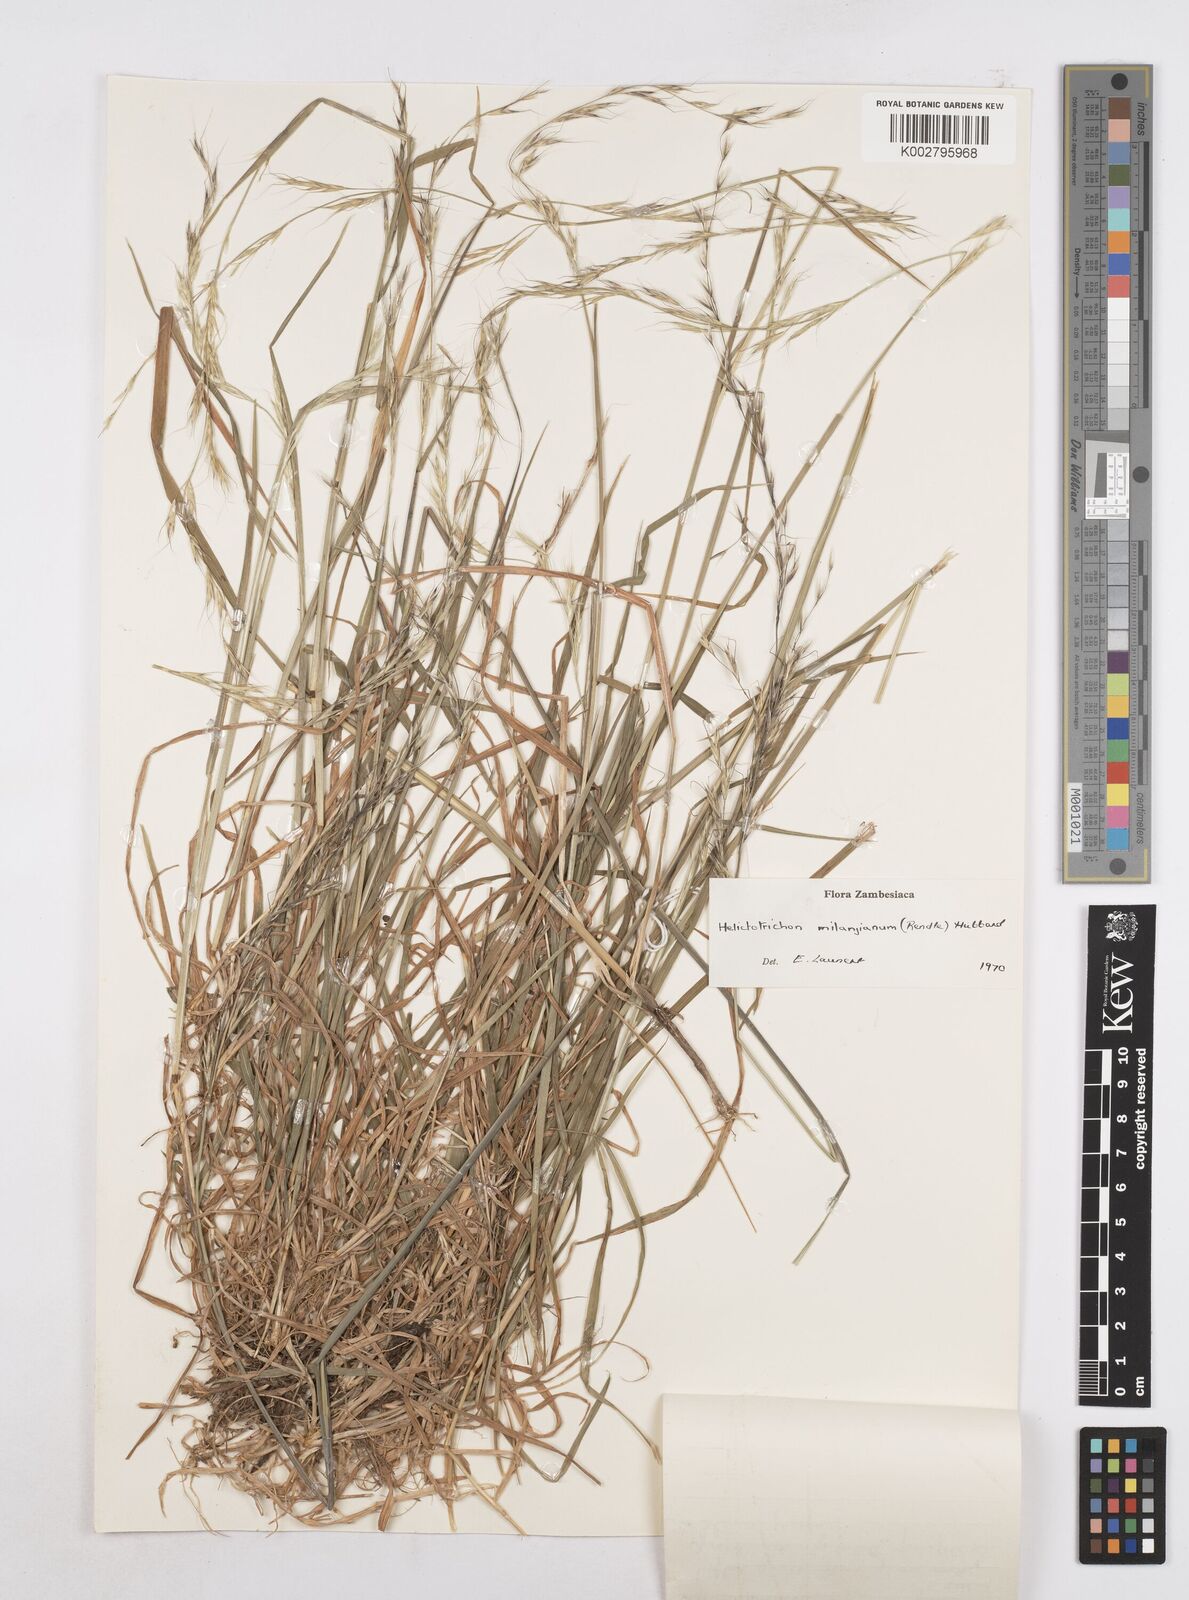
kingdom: Plantae
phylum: Tracheophyta
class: Liliopsida
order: Poales
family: Poaceae
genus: Trisetopsis
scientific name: Trisetopsis milanjiana
